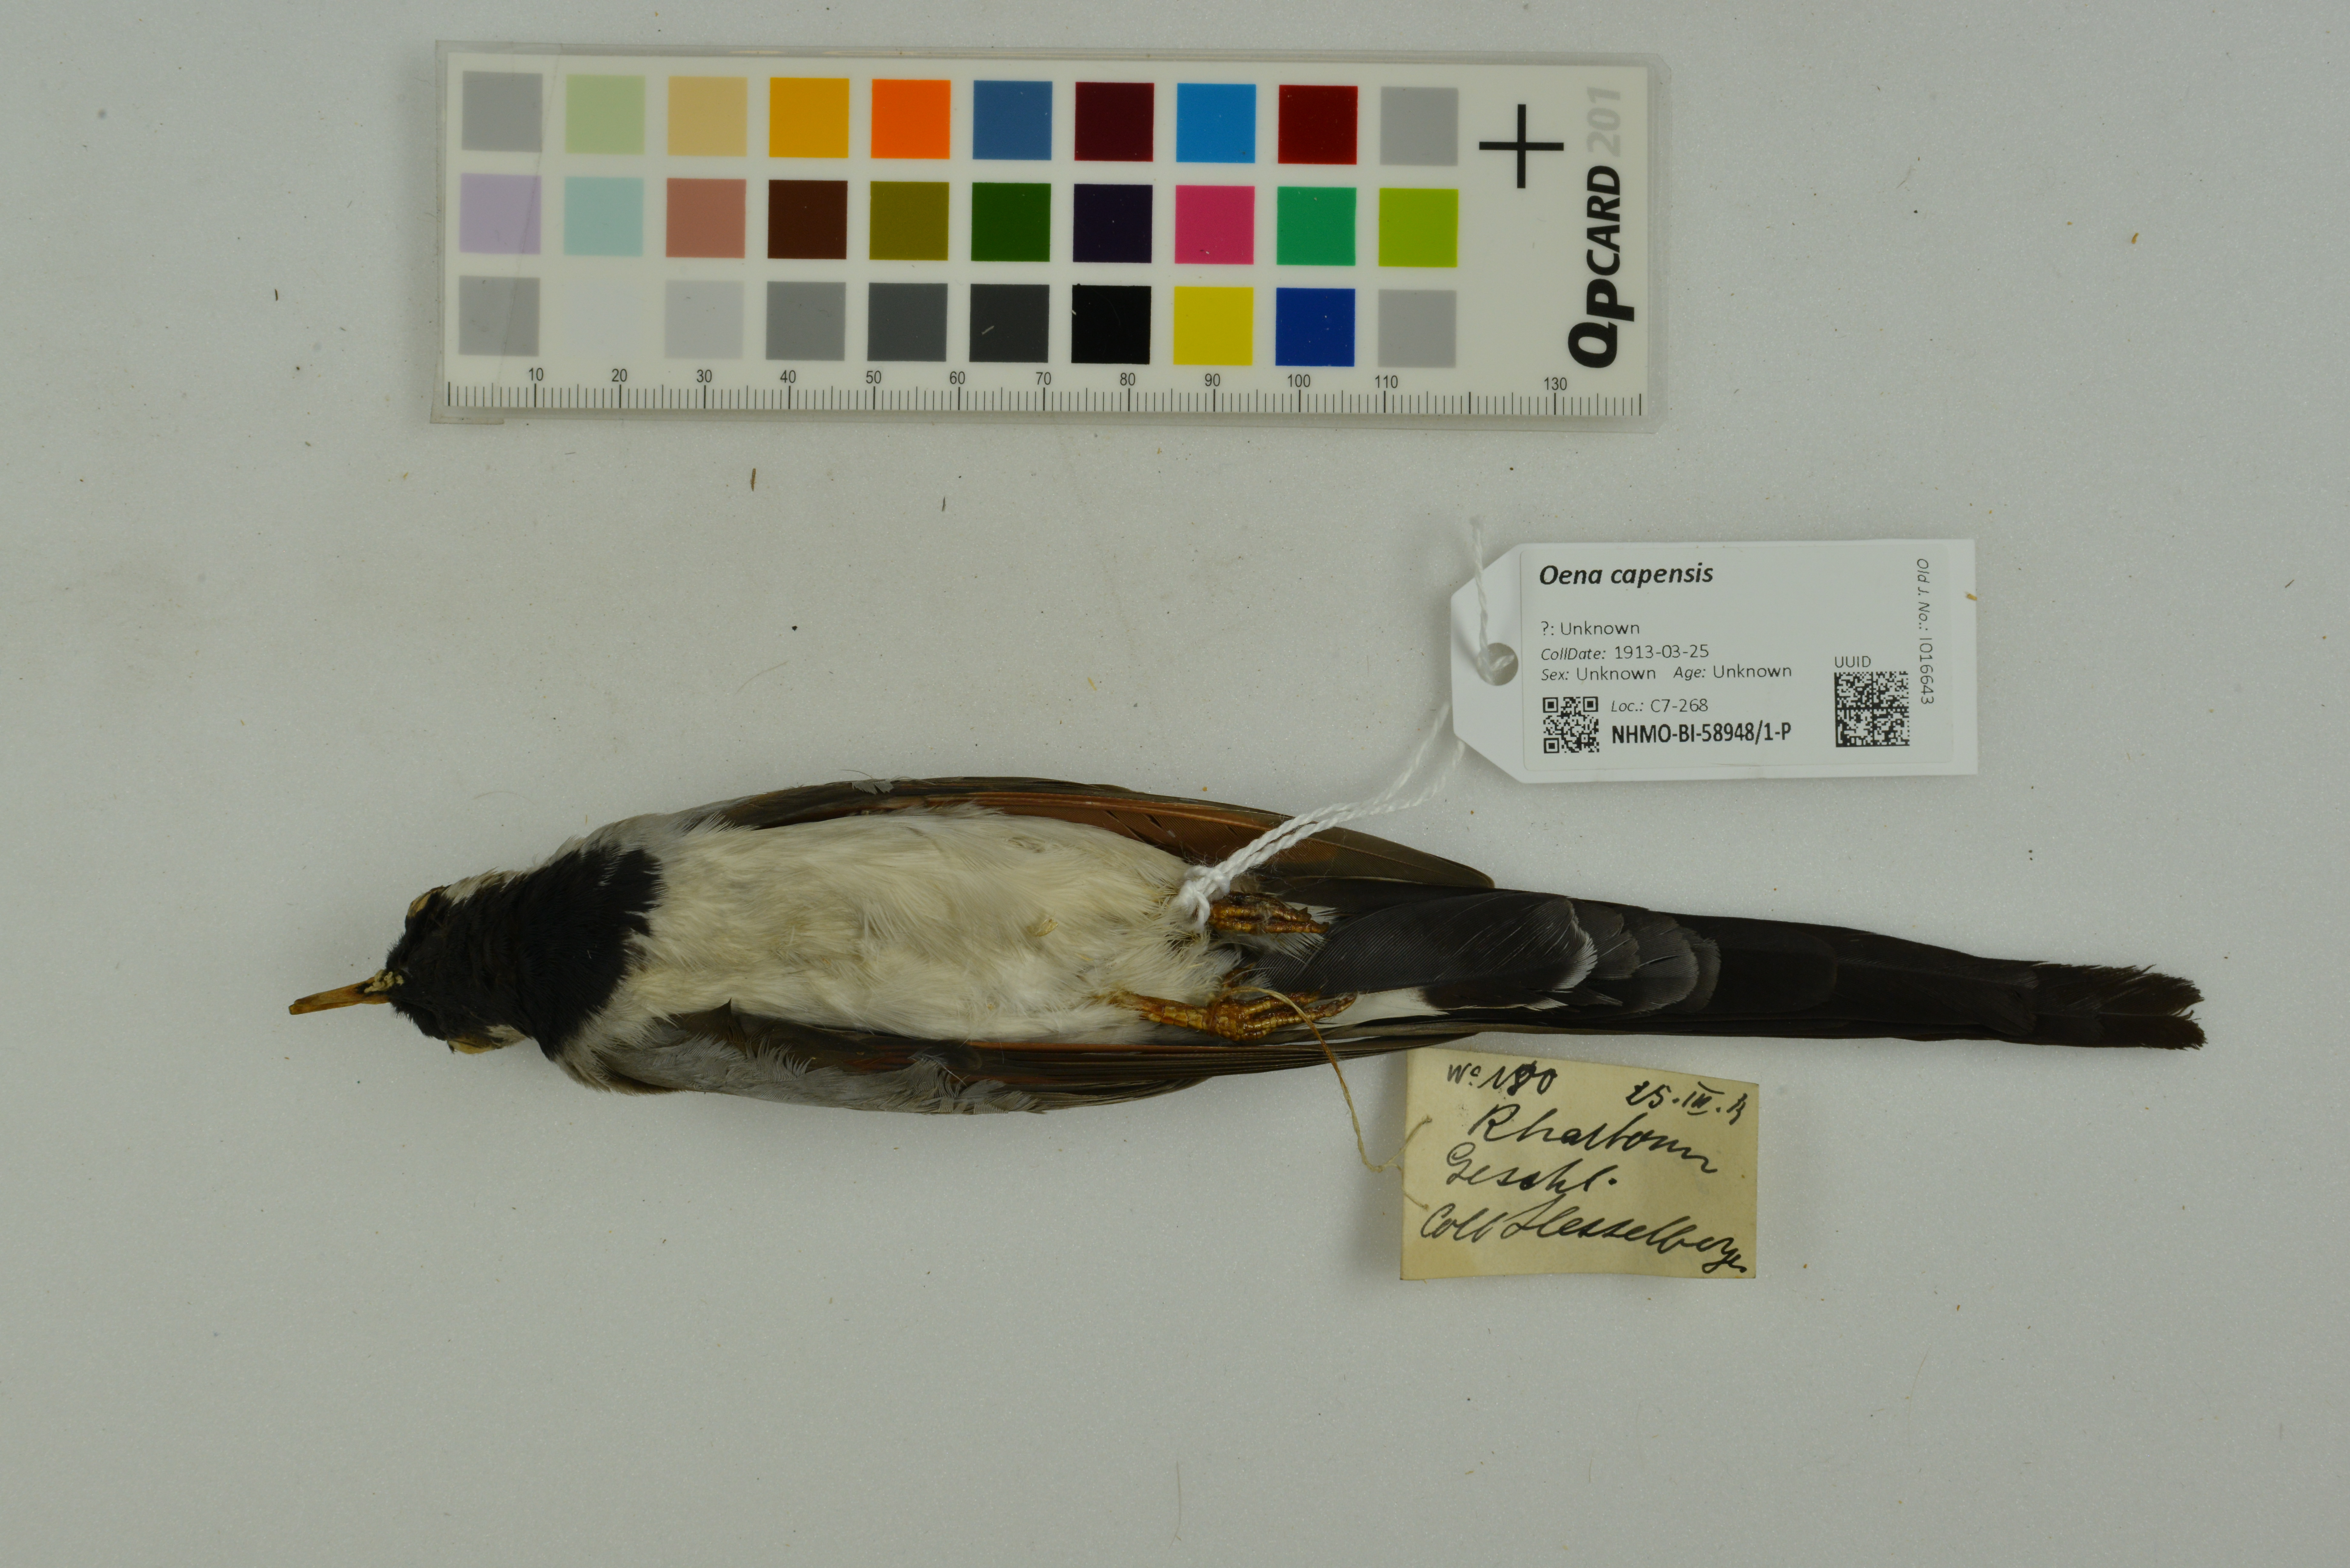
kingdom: Animalia
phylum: Chordata
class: Aves
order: Columbiformes
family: Columbidae
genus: Oena
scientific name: Oena capensis
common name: Namaqua dove
